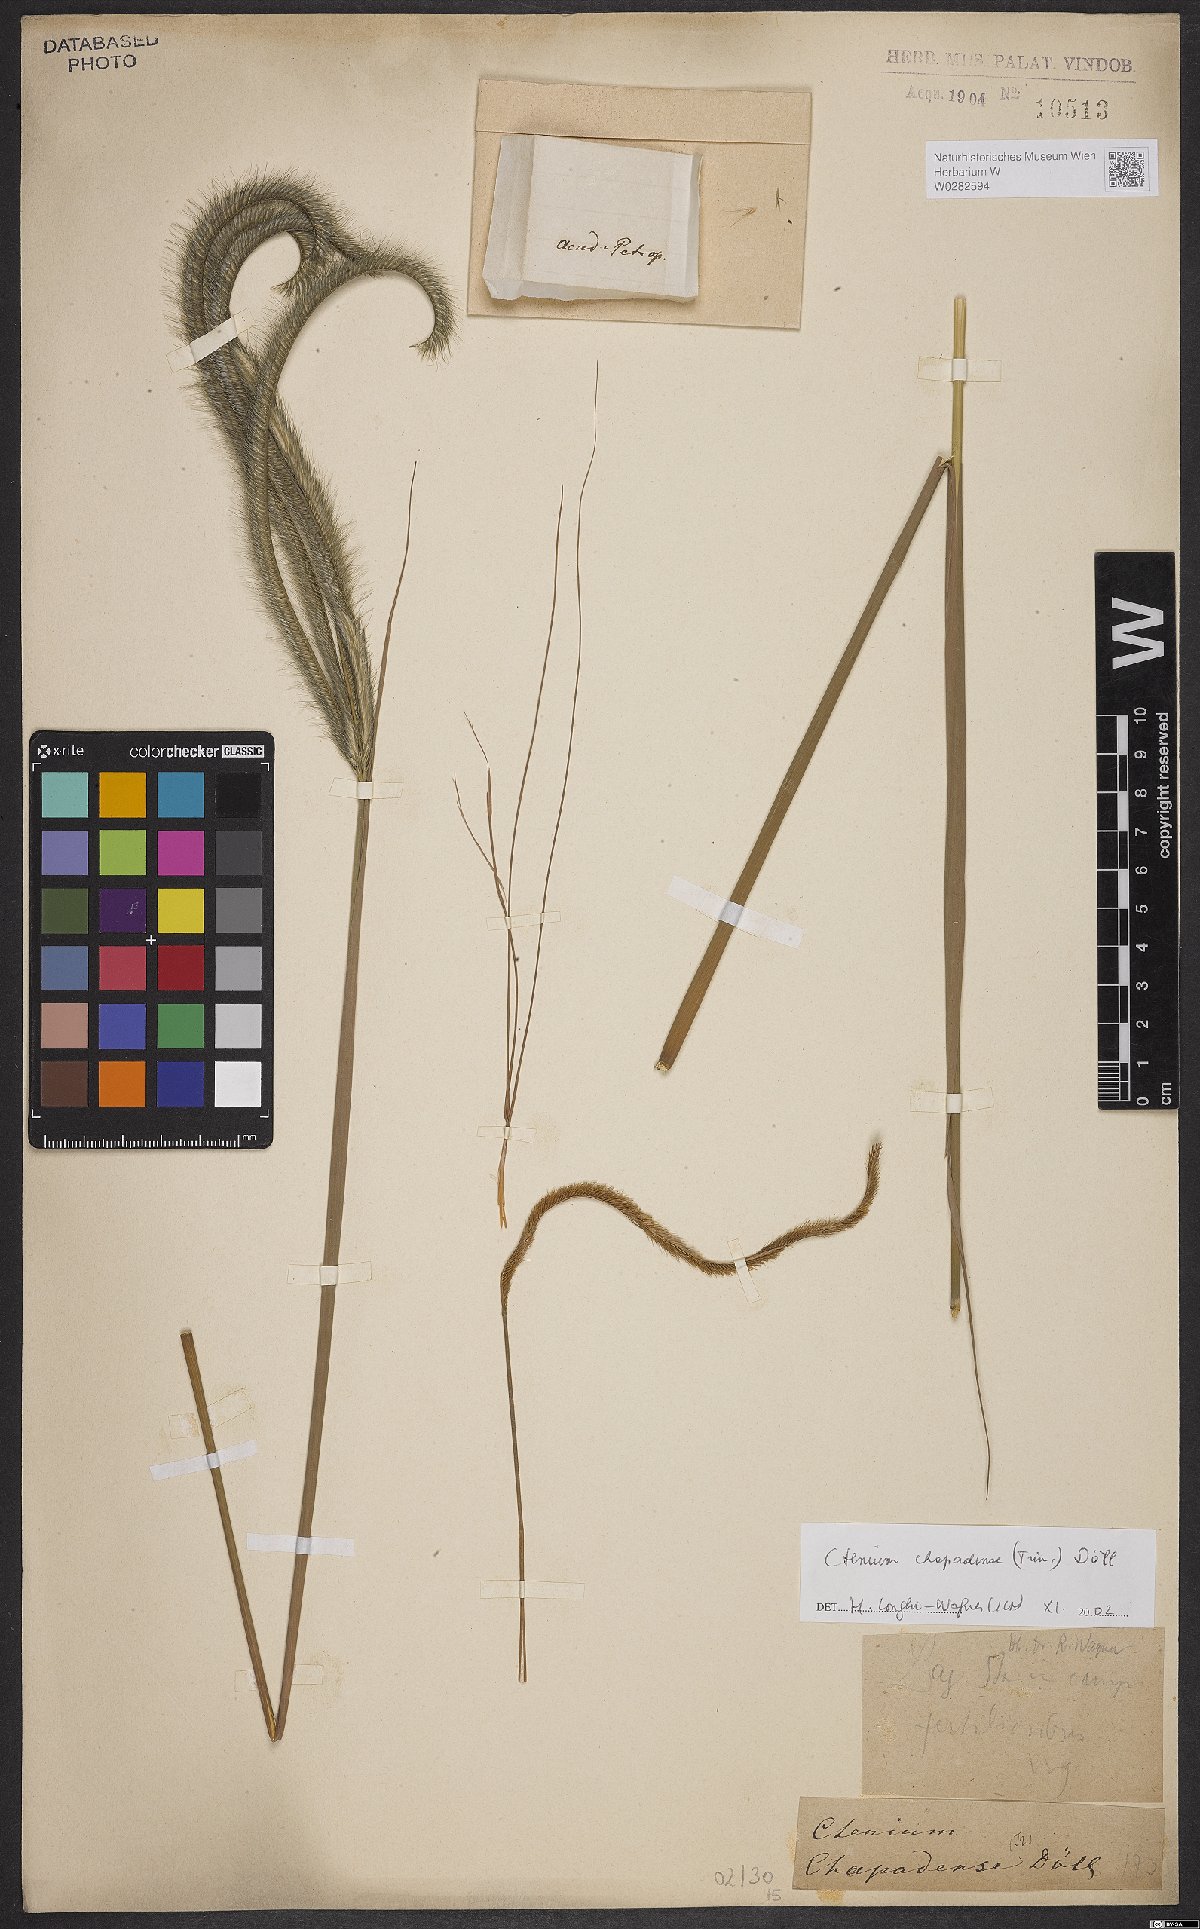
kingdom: Plantae
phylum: Tracheophyta
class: Liliopsida
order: Poales
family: Poaceae
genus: Ctenium
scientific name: Ctenium chapadense
